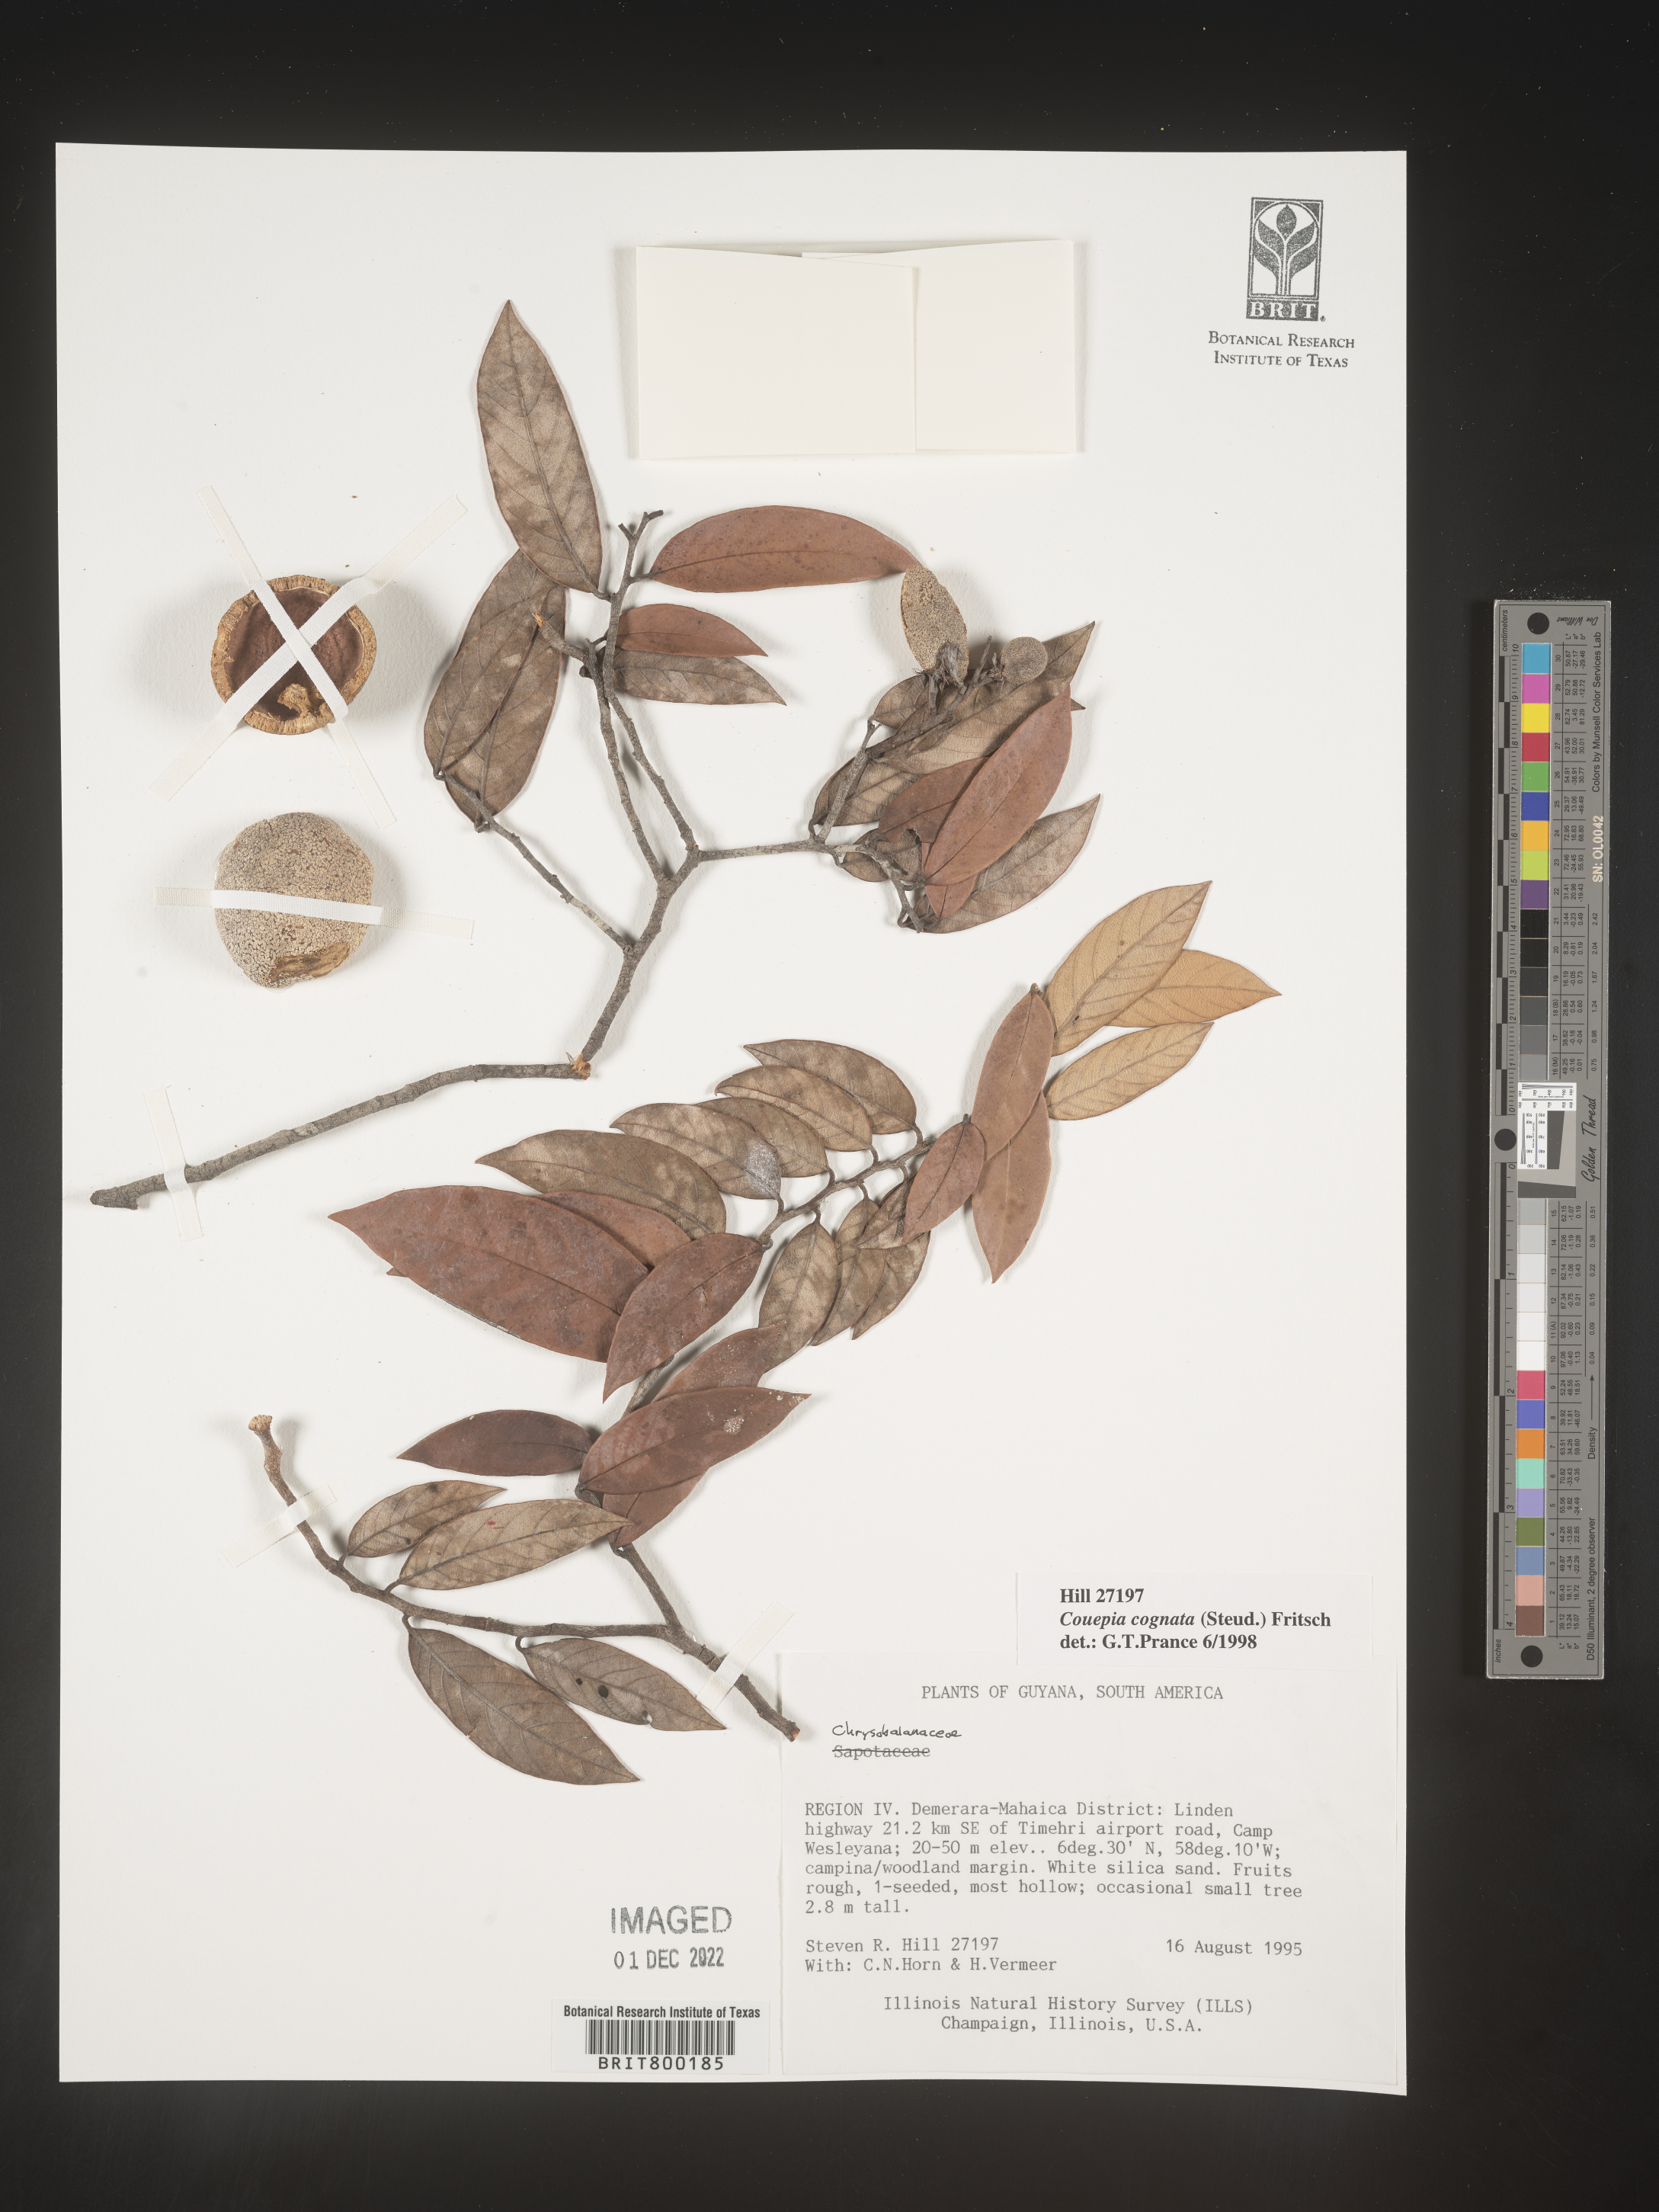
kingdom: Plantae
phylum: Tracheophyta
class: Magnoliopsida
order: Malpighiales
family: Chrysobalanaceae
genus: Couepia
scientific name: Couepia
